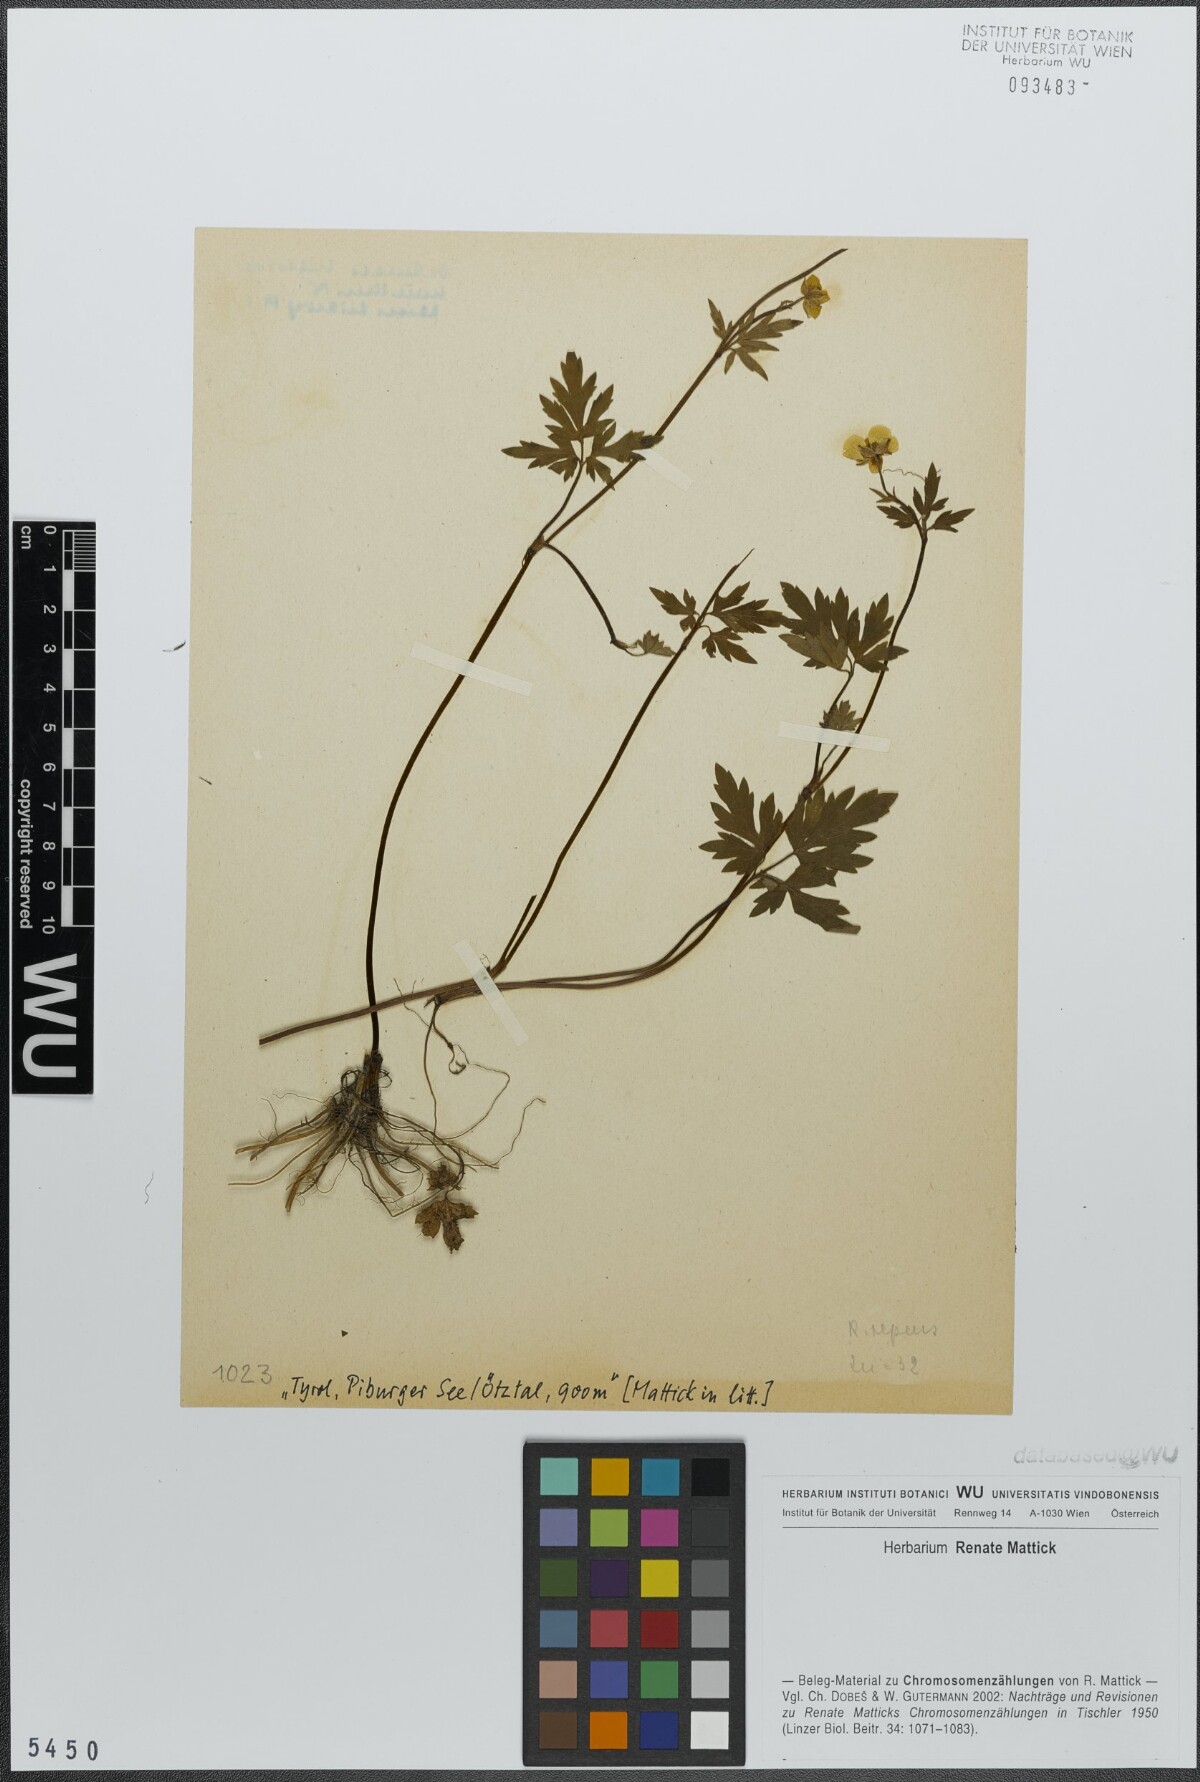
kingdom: Plantae
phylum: Tracheophyta
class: Magnoliopsida
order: Ranunculales
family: Ranunculaceae
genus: Ranunculus
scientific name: Ranunculus repens
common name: Creeping buttercup
